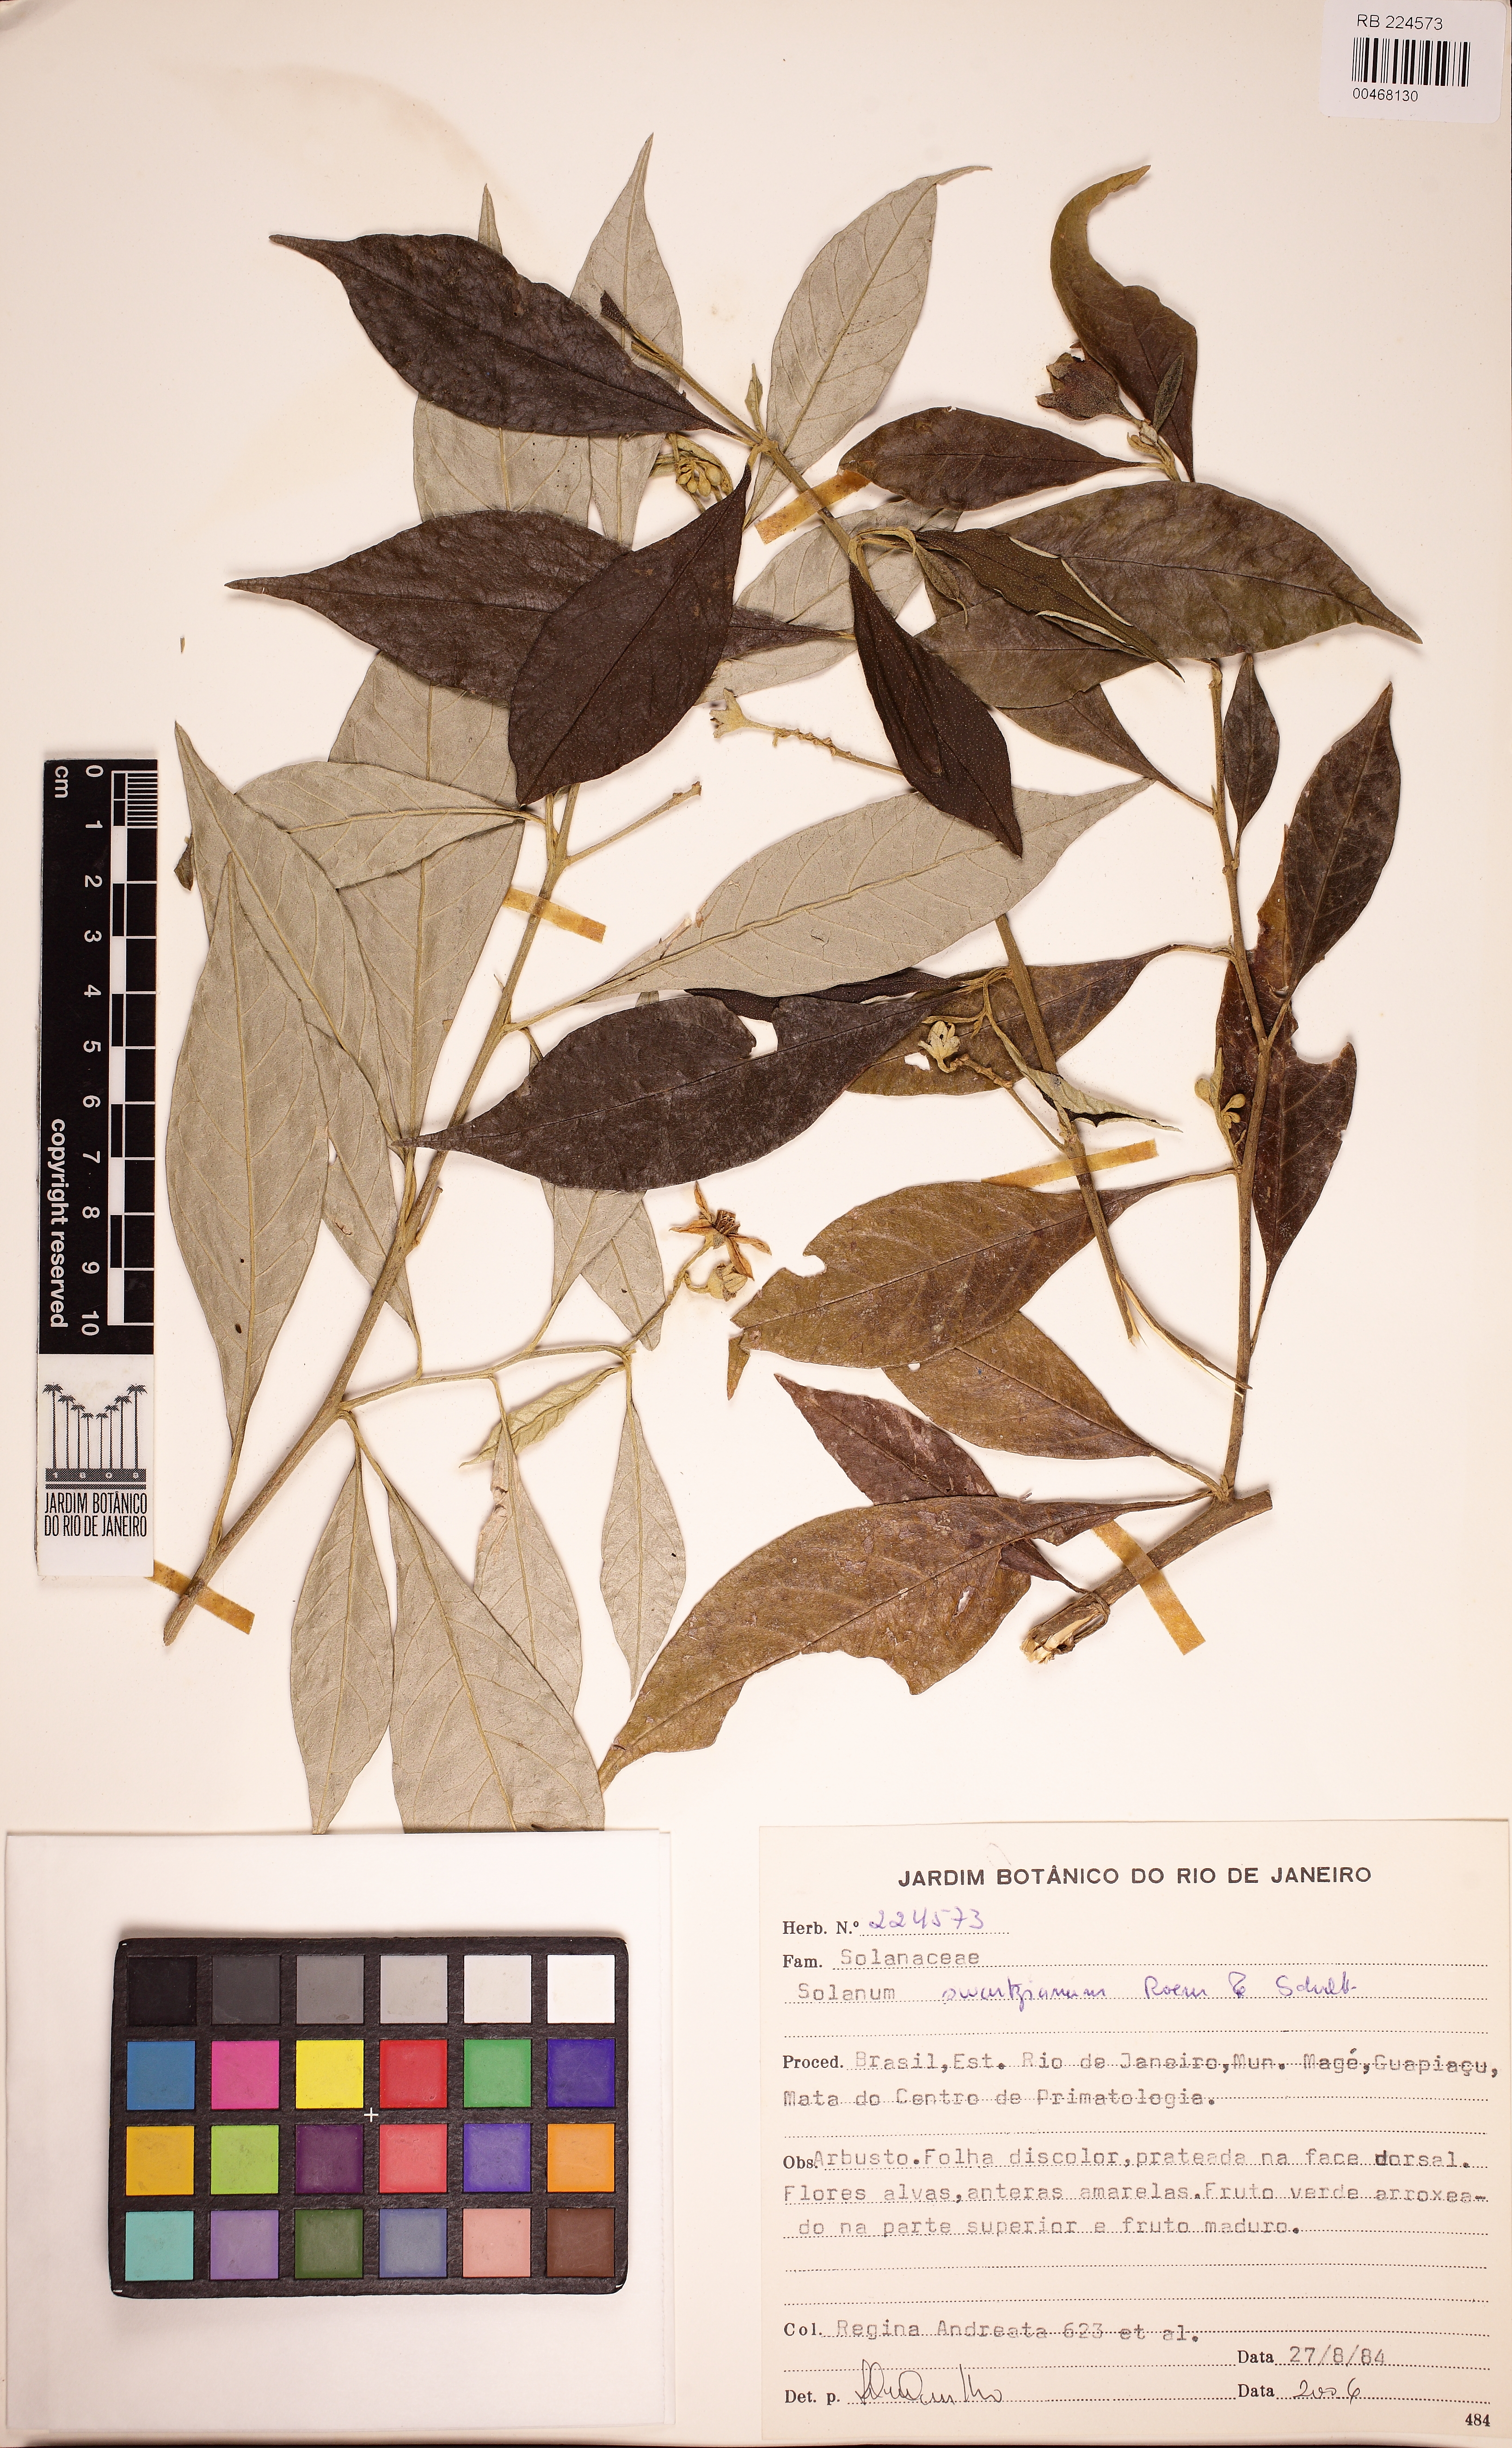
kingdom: Plantae
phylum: Tracheophyta
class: Magnoliopsida
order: Solanales
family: Solanaceae
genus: Solanum
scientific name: Solanum swartzianum
